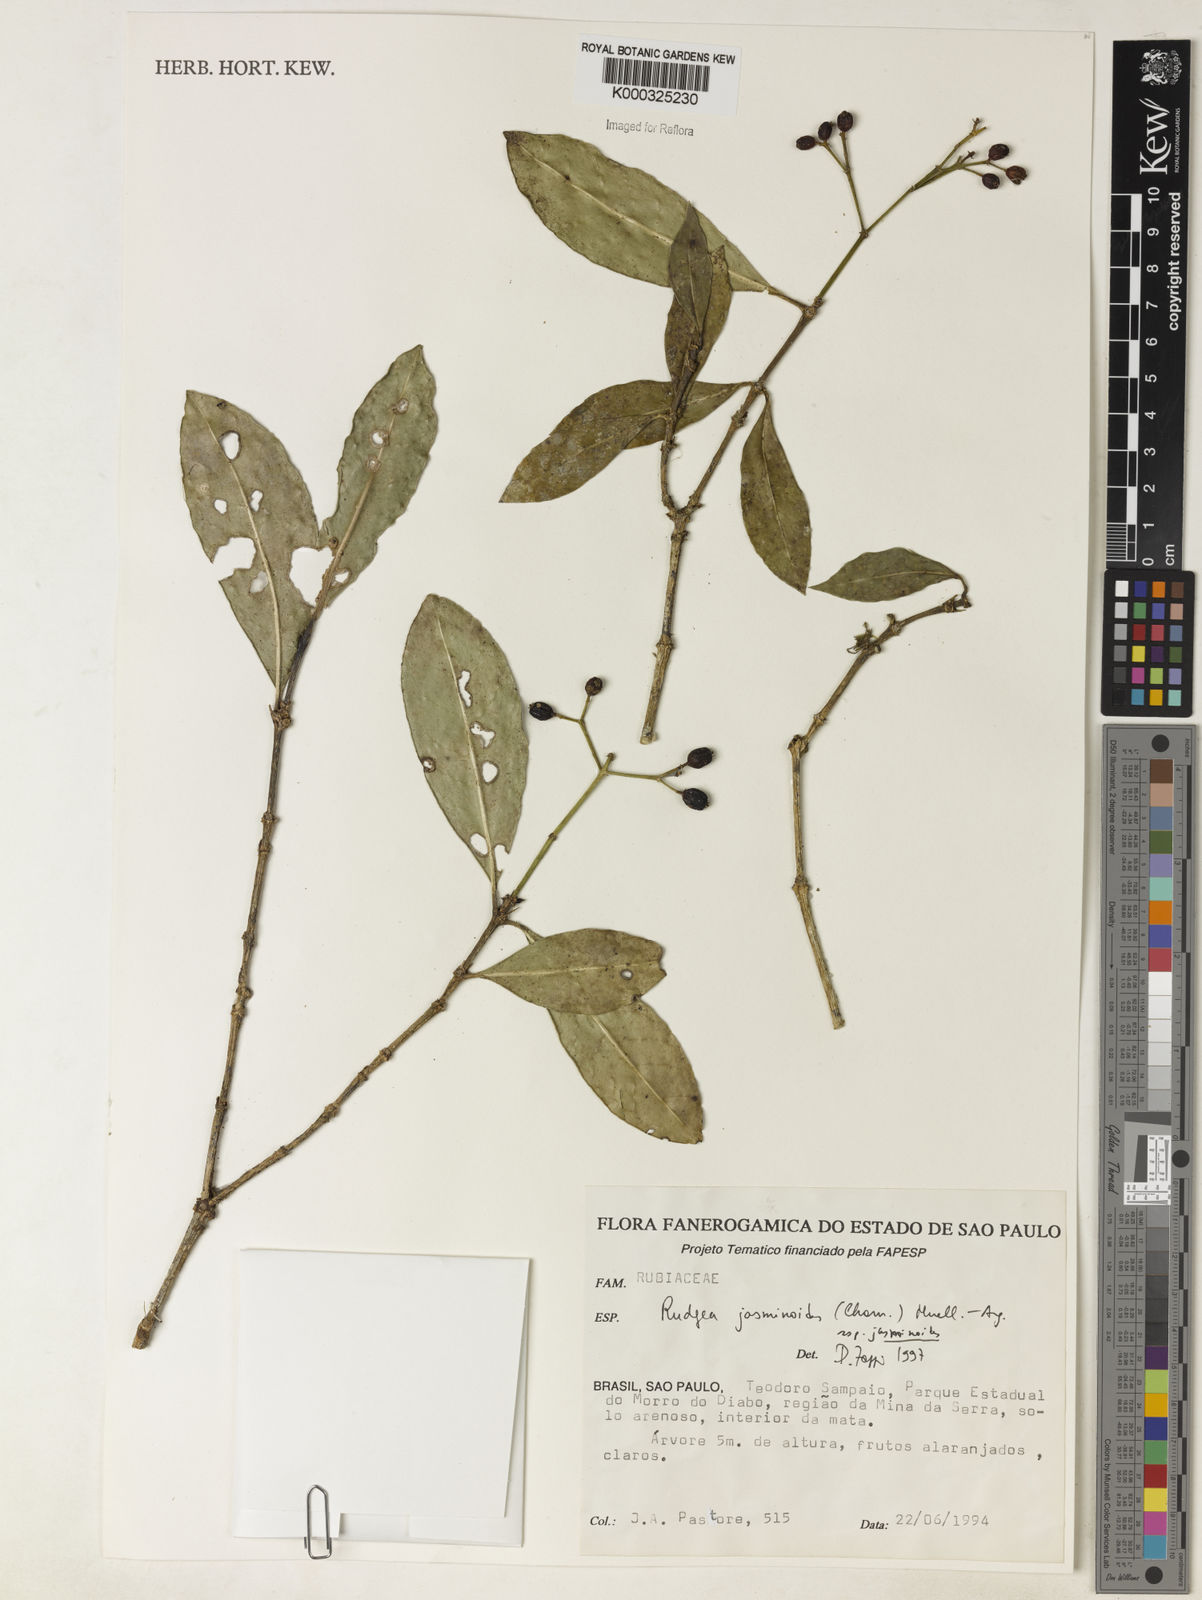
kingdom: Plantae
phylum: Tracheophyta
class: Magnoliopsida
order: Gentianales
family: Rubiaceae
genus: Rudgea
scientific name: Rudgea jasminoides
